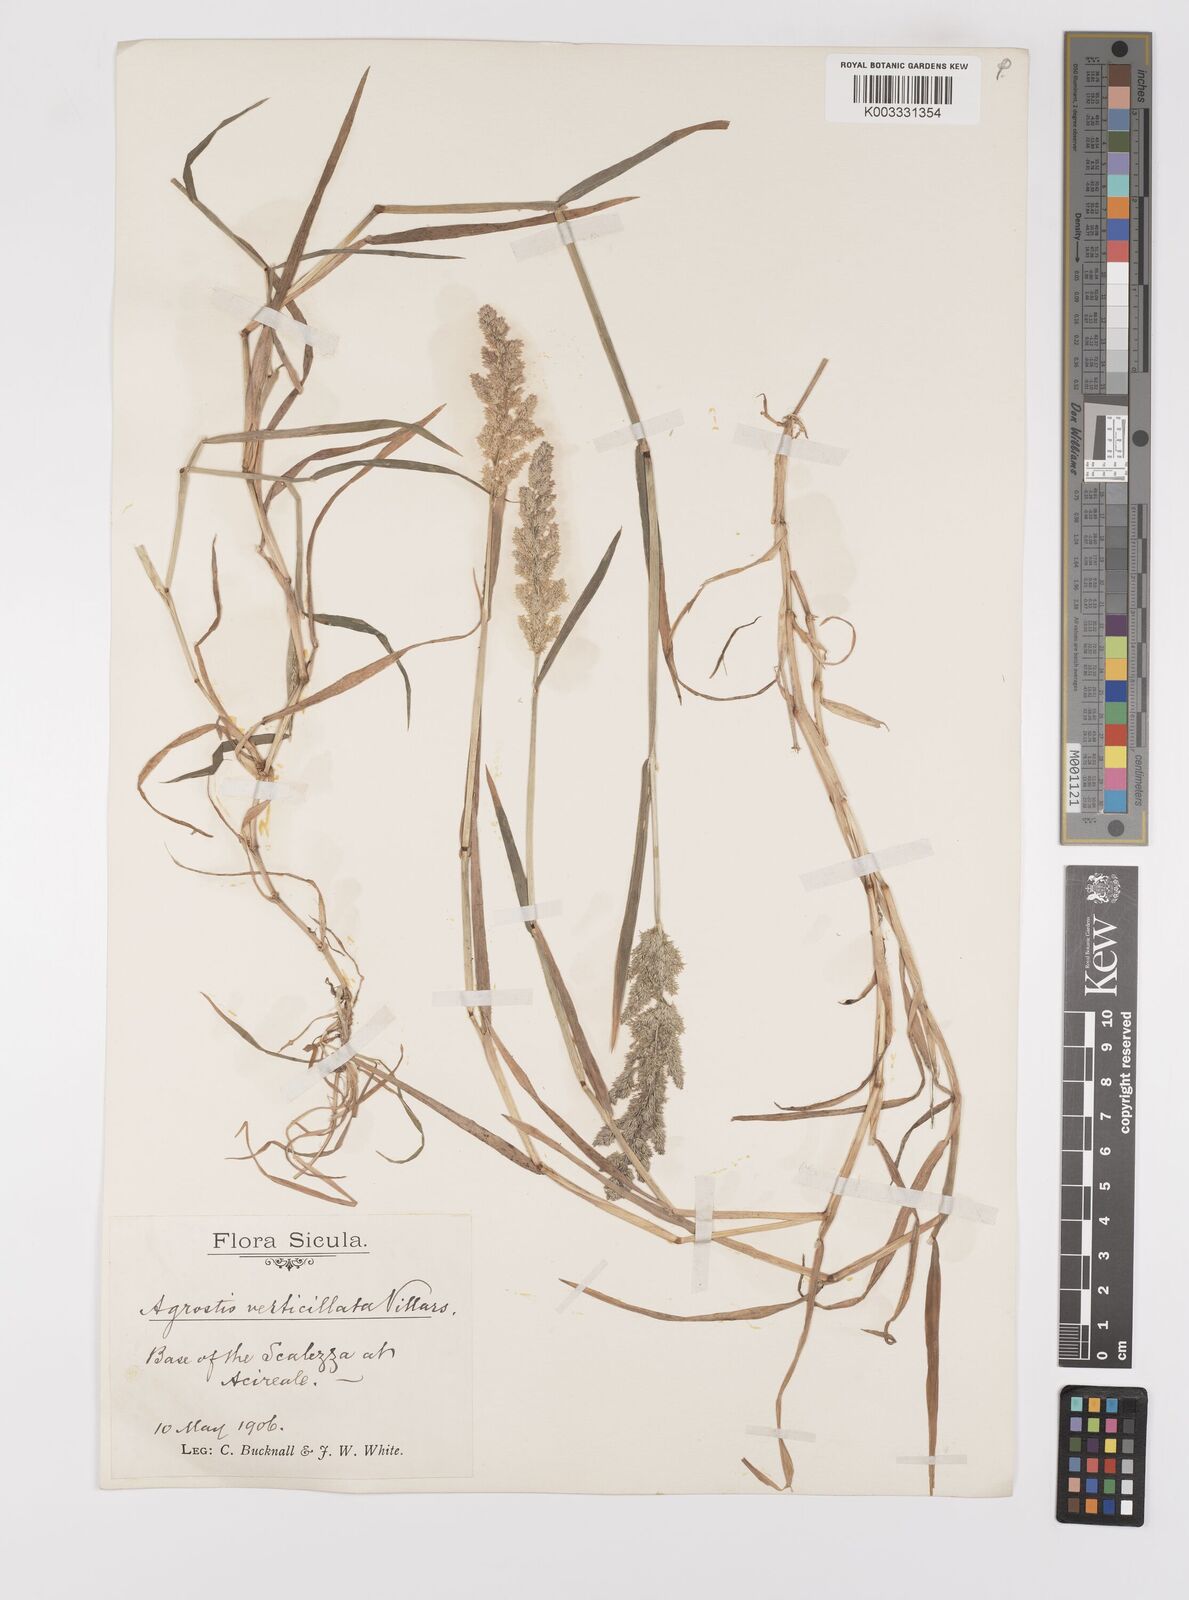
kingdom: Plantae
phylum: Tracheophyta
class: Liliopsida
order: Poales
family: Poaceae
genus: Polypogon
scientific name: Polypogon viridis
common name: Water bent
